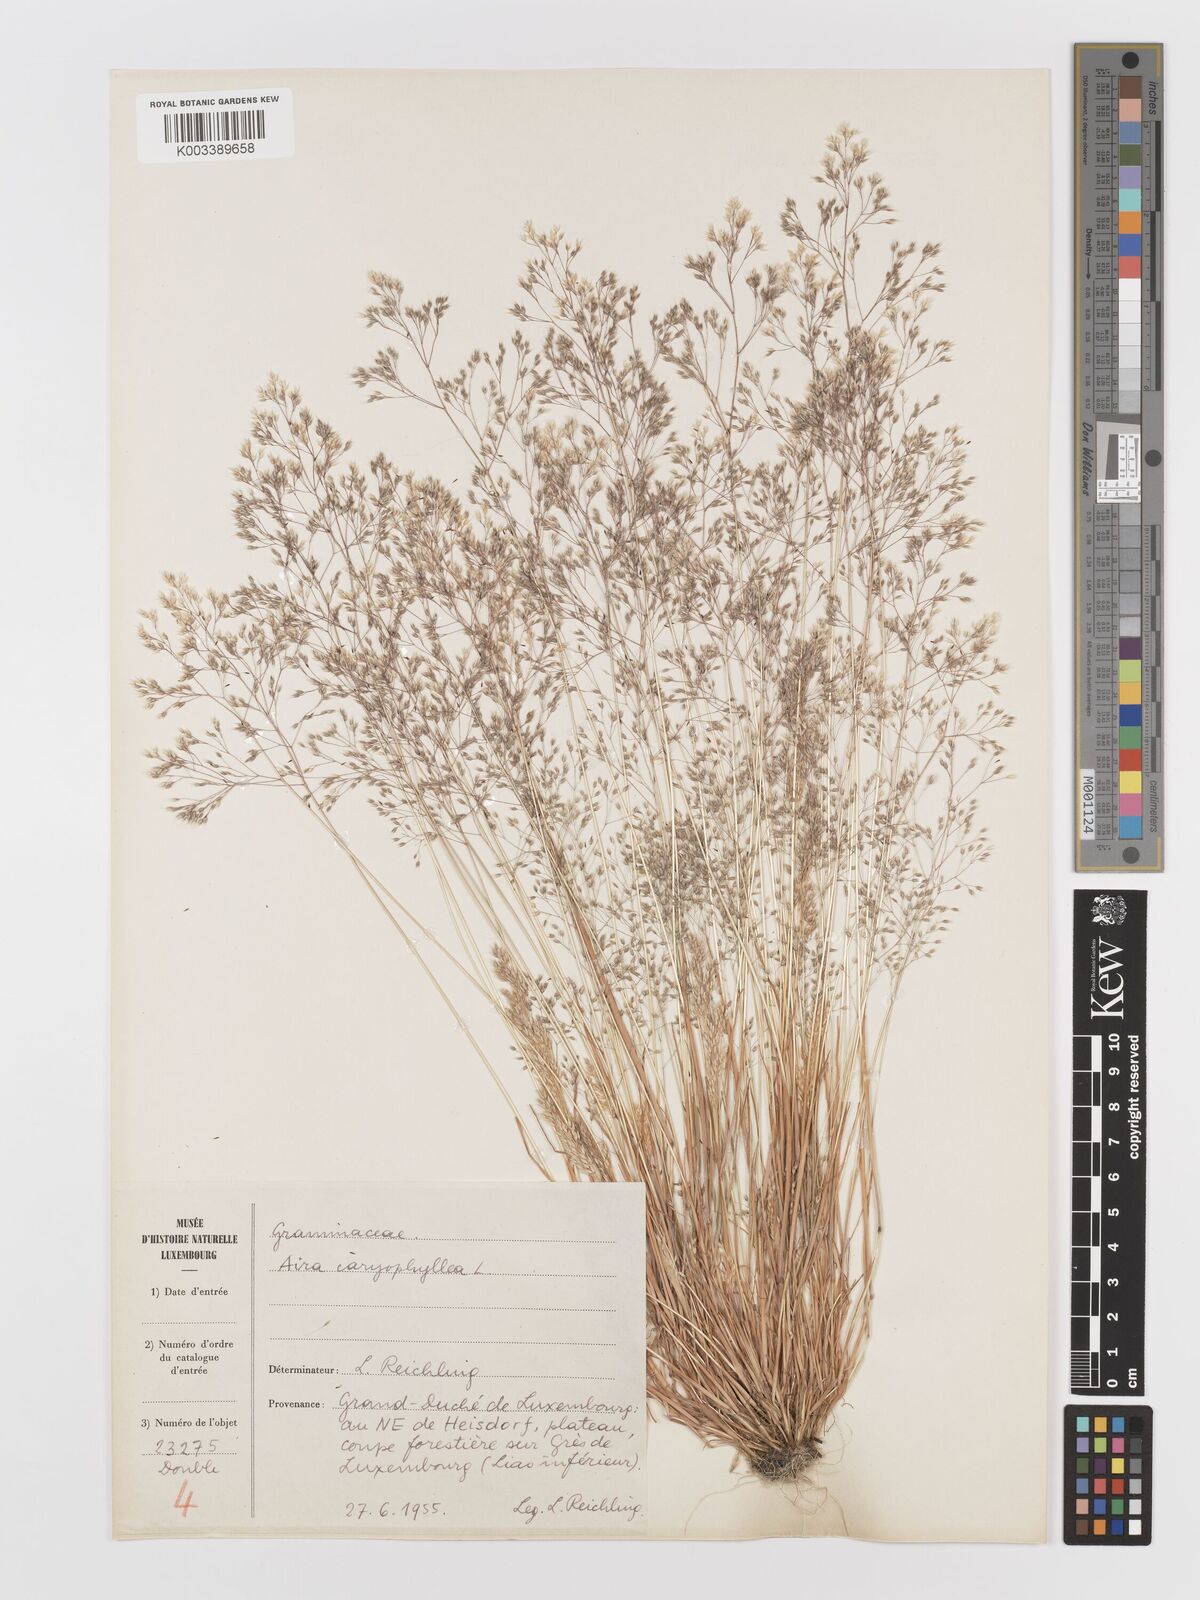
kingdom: Plantae
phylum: Tracheophyta
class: Liliopsida
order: Poales
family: Poaceae
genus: Aira
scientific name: Aira caryophyllea
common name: Silver hairgrass
